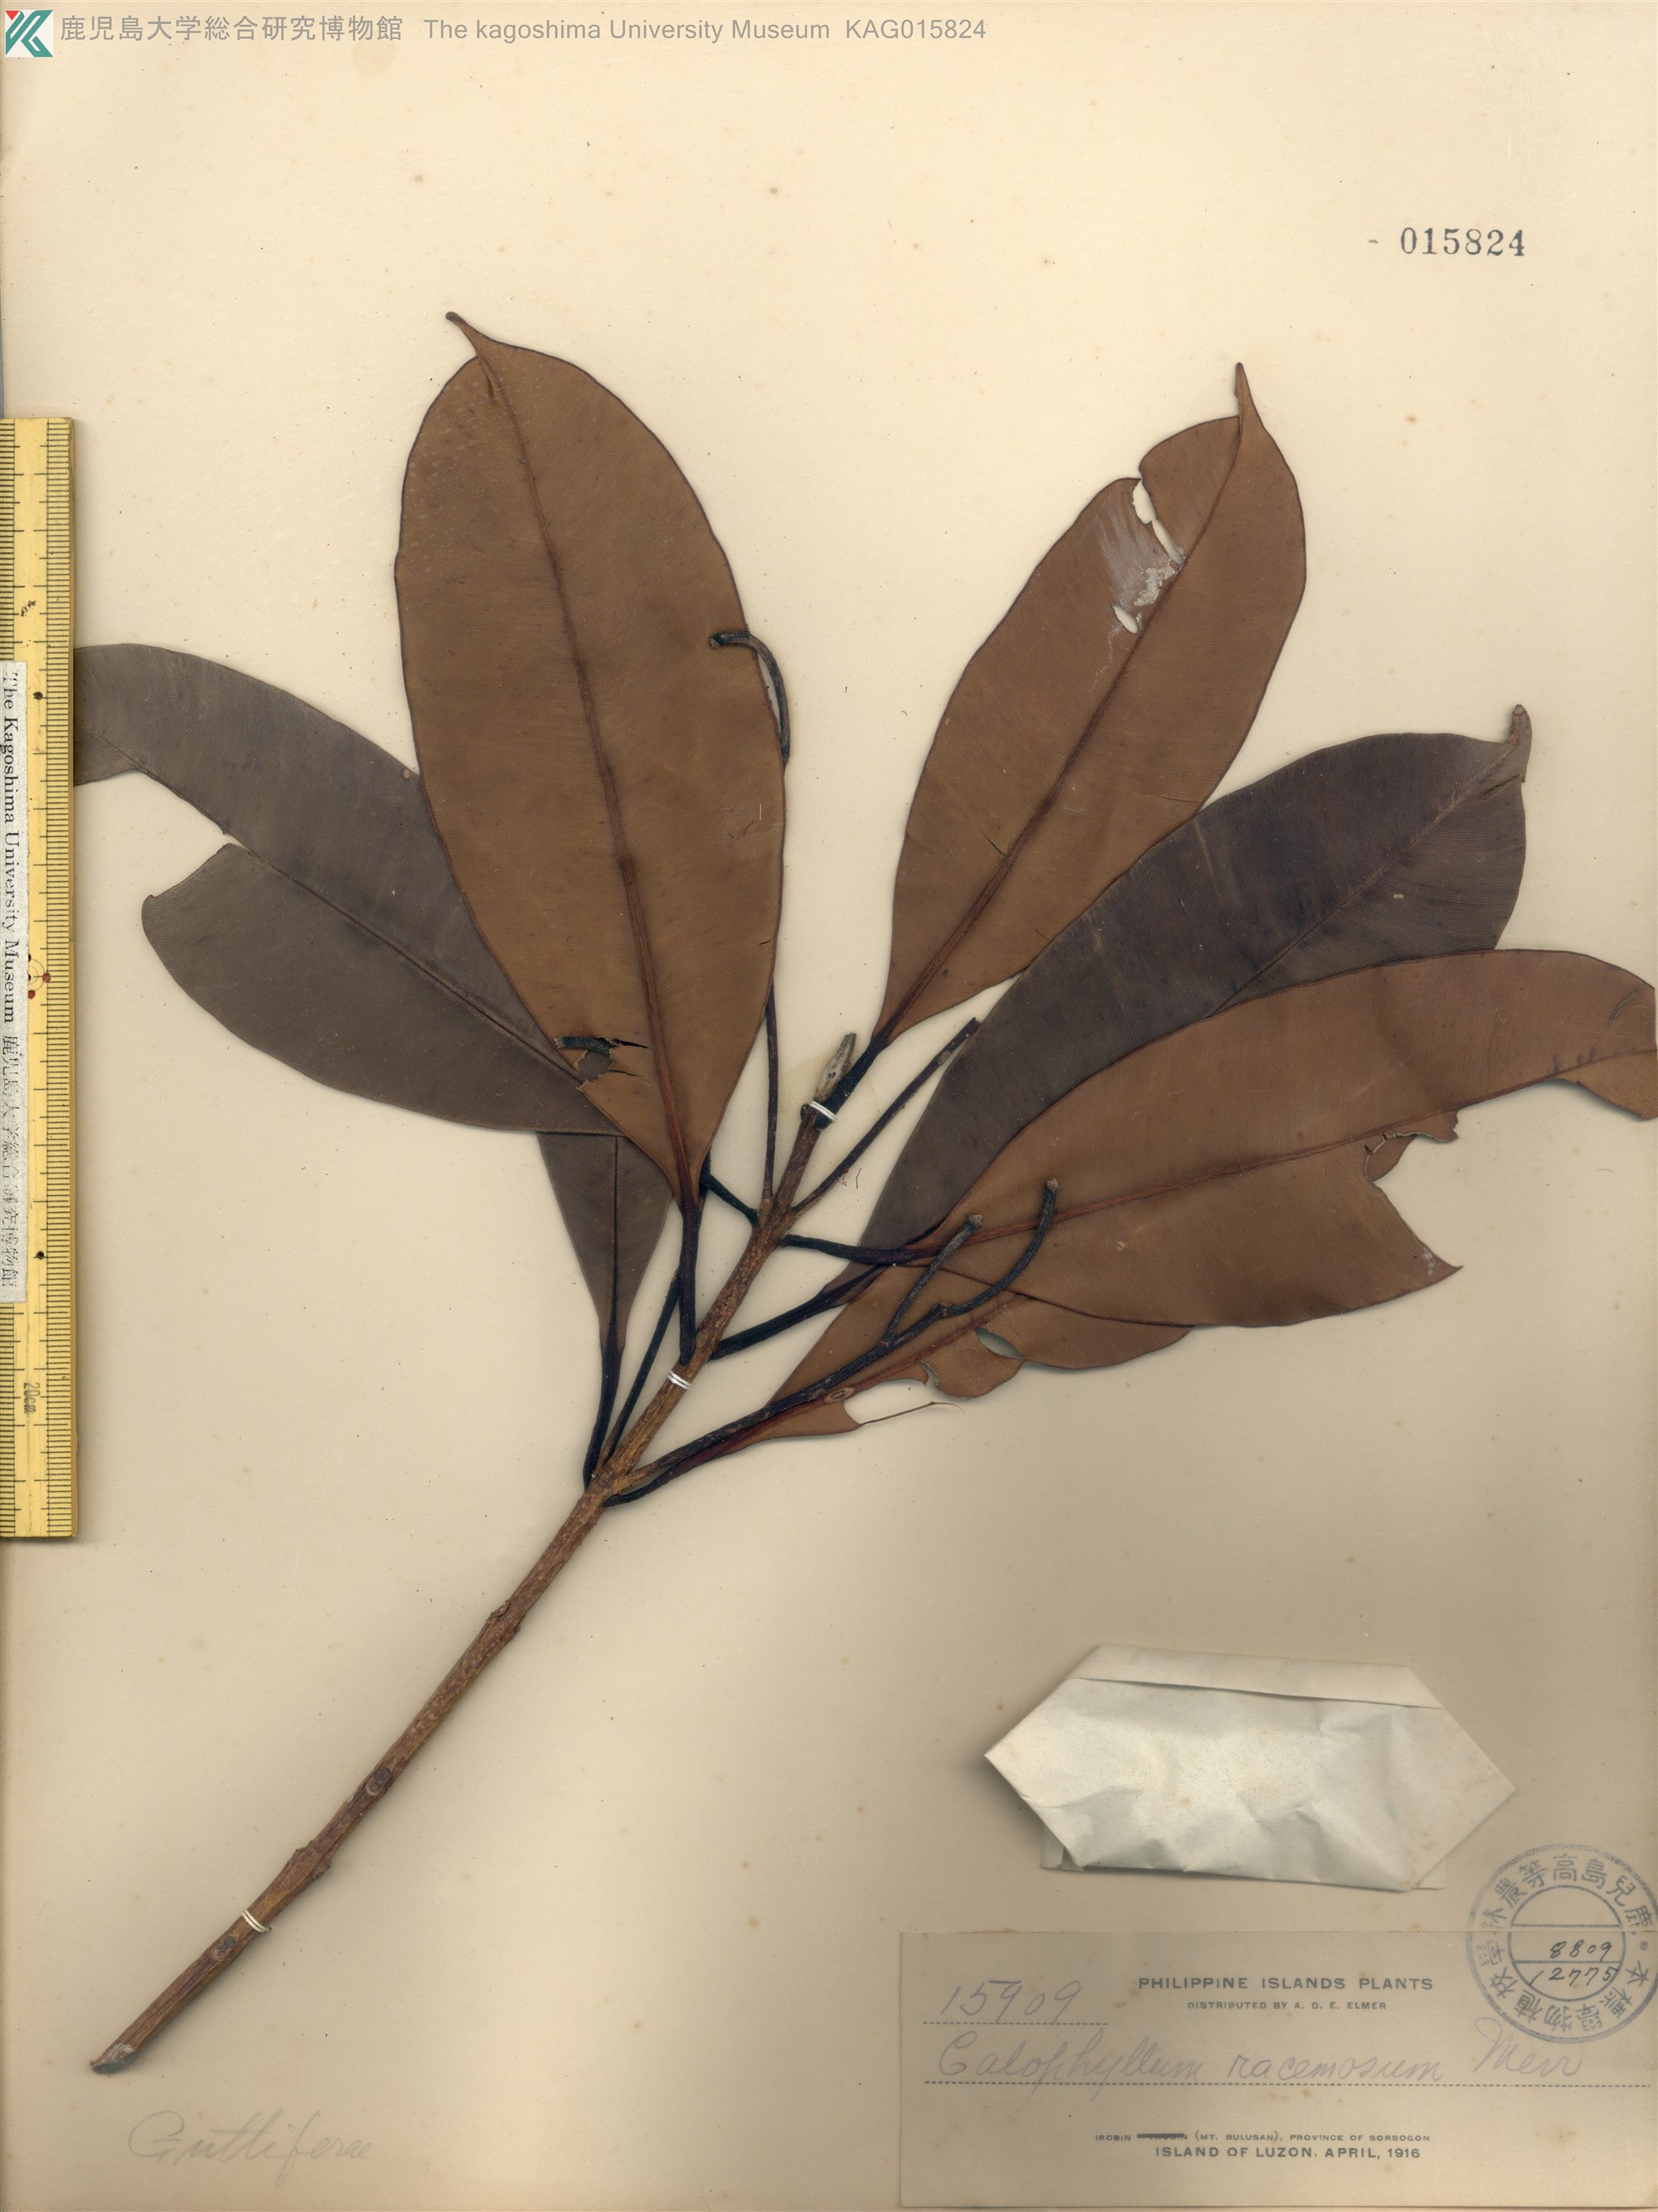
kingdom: Plantae
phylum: Tracheophyta
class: Magnoliopsida
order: Malpighiales
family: Calophyllaceae
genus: Calophyllum
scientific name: Calophyllum blancoi
